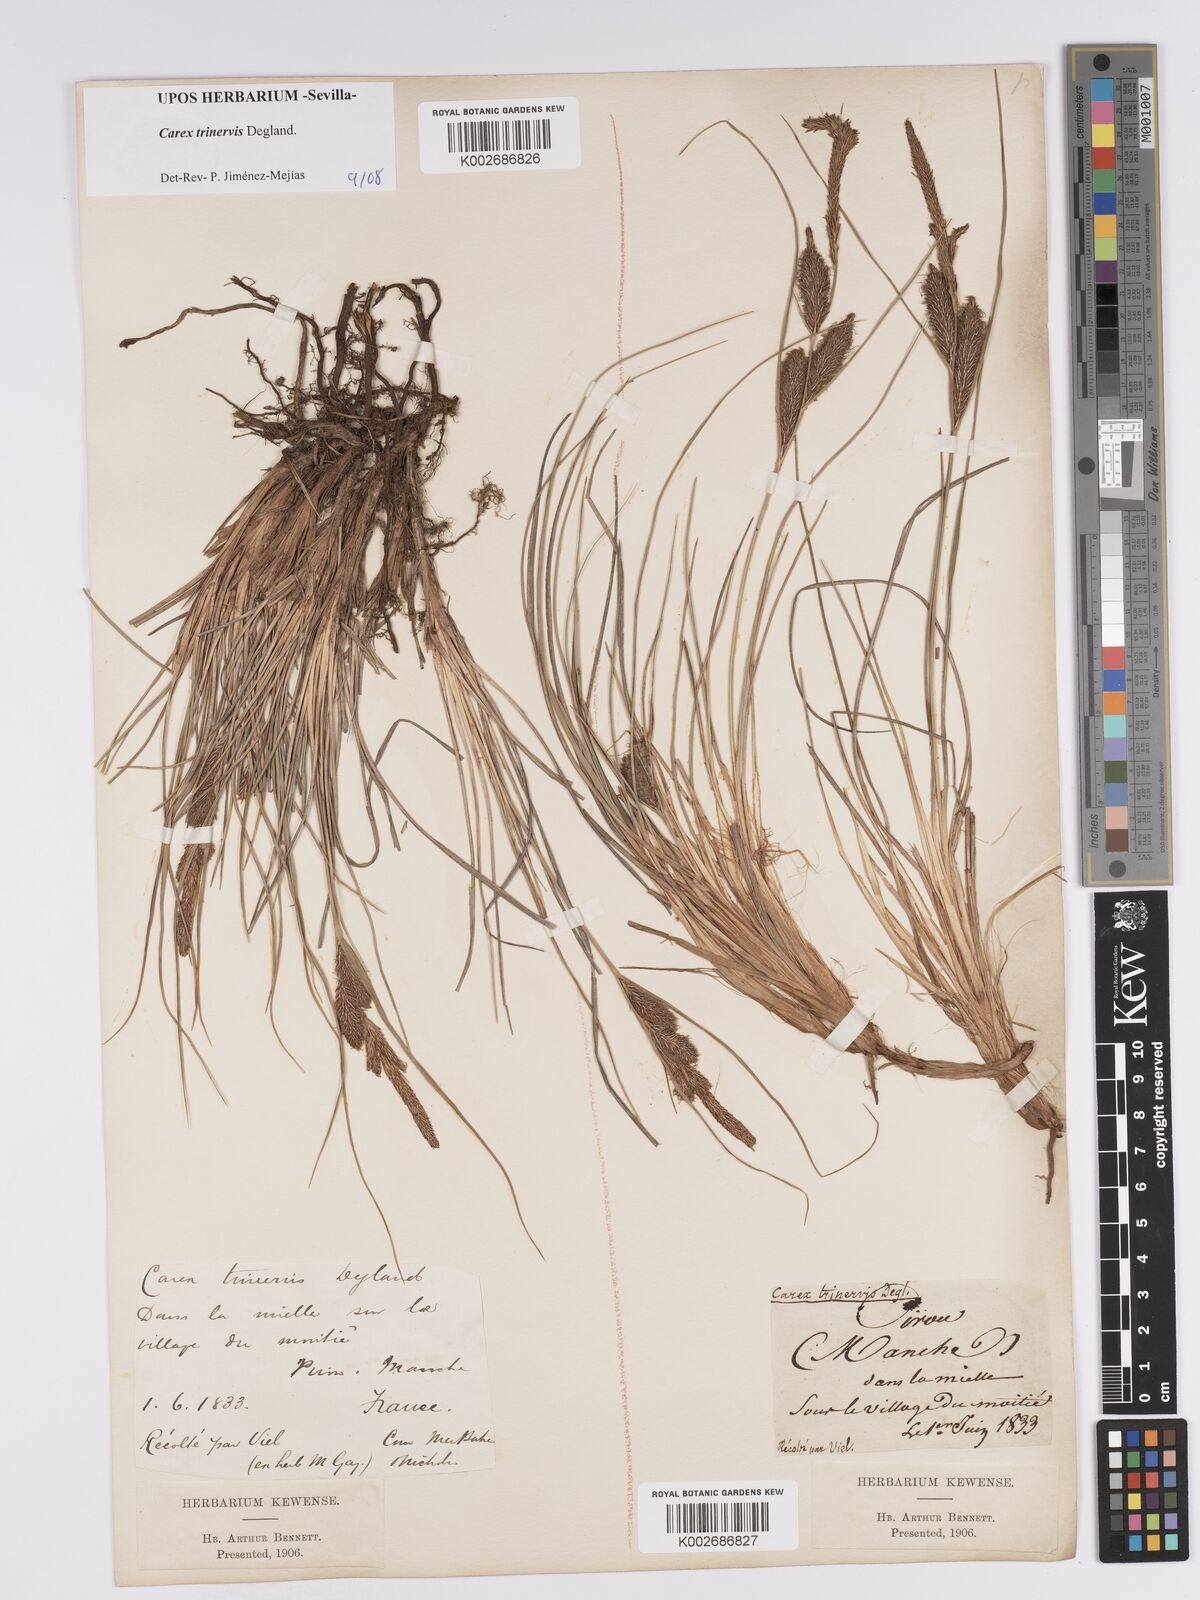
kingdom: Plantae
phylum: Tracheophyta
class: Liliopsida
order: Poales
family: Cyperaceae
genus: Carex
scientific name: Carex trinervis
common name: Three-nerved sedge
